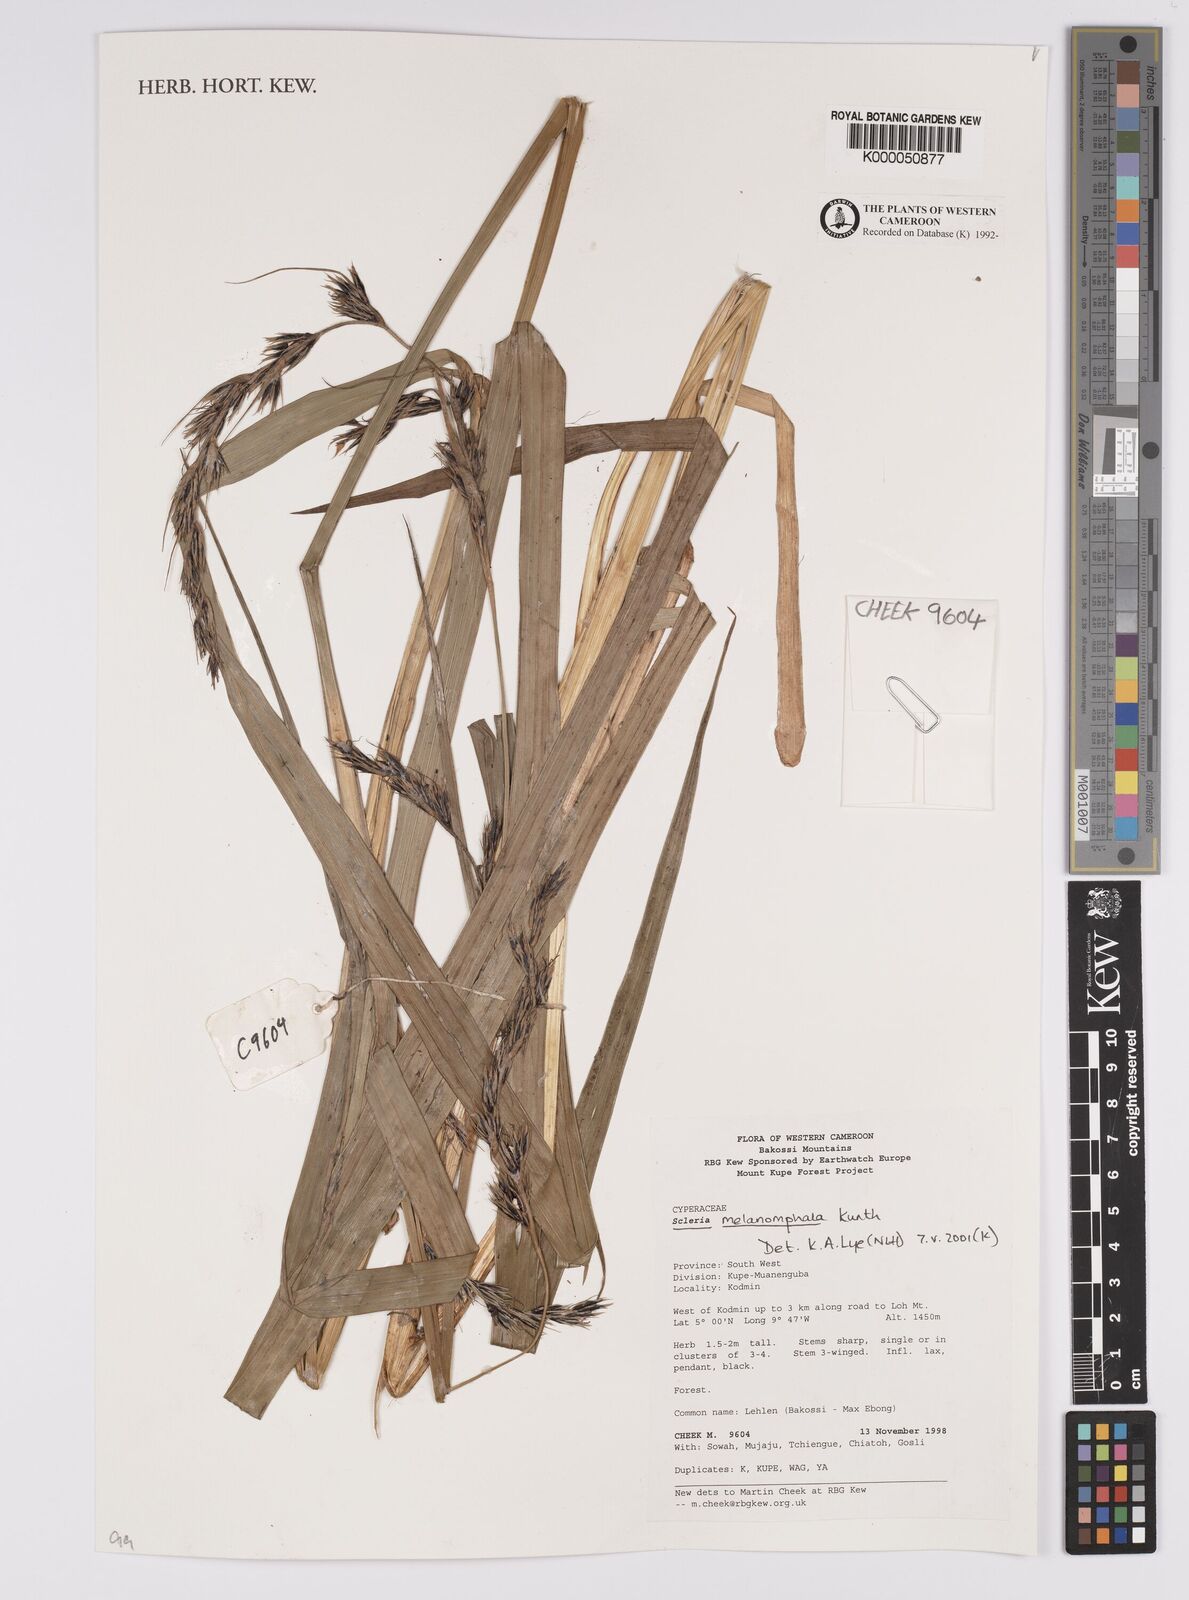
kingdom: Plantae
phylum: Tracheophyta
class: Liliopsida
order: Poales
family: Cyperaceae
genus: Scleria
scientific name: Scleria melanomphala
